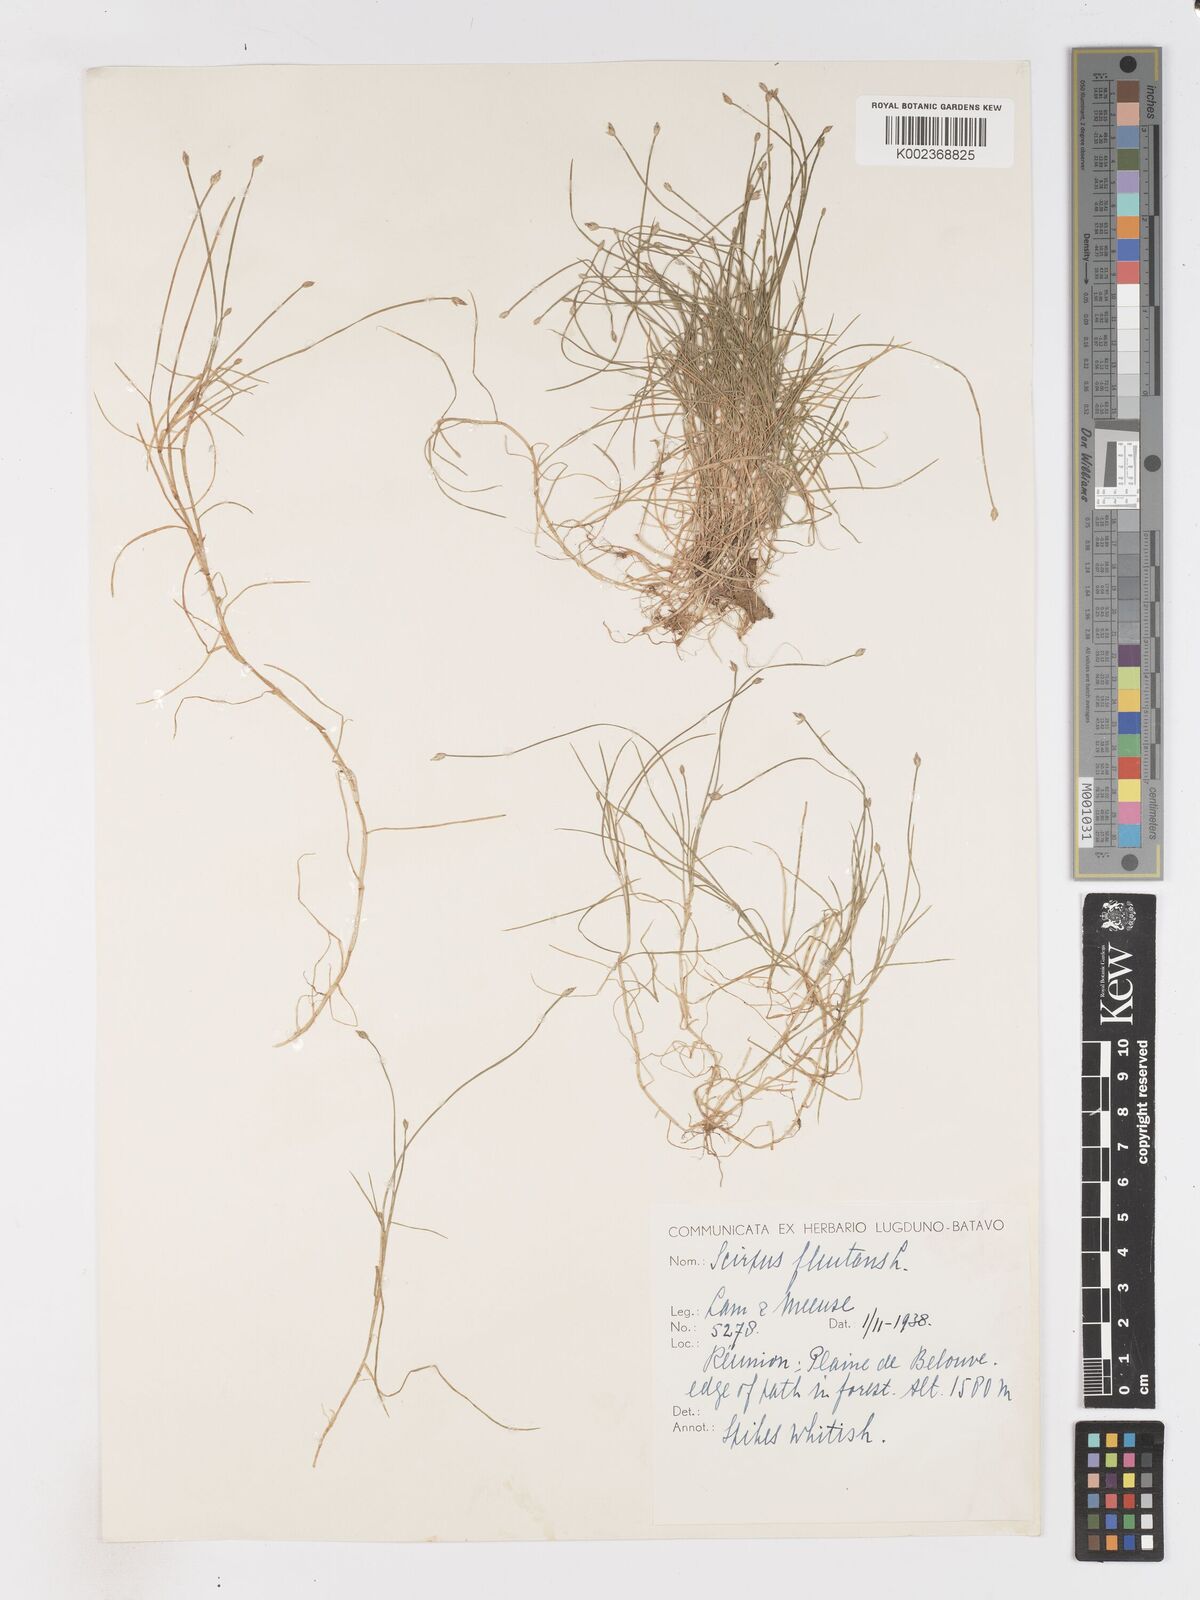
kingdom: Plantae
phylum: Tracheophyta
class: Liliopsida
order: Poales
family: Cyperaceae
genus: Isolepis
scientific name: Isolepis fluitans
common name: Floating club-rush
